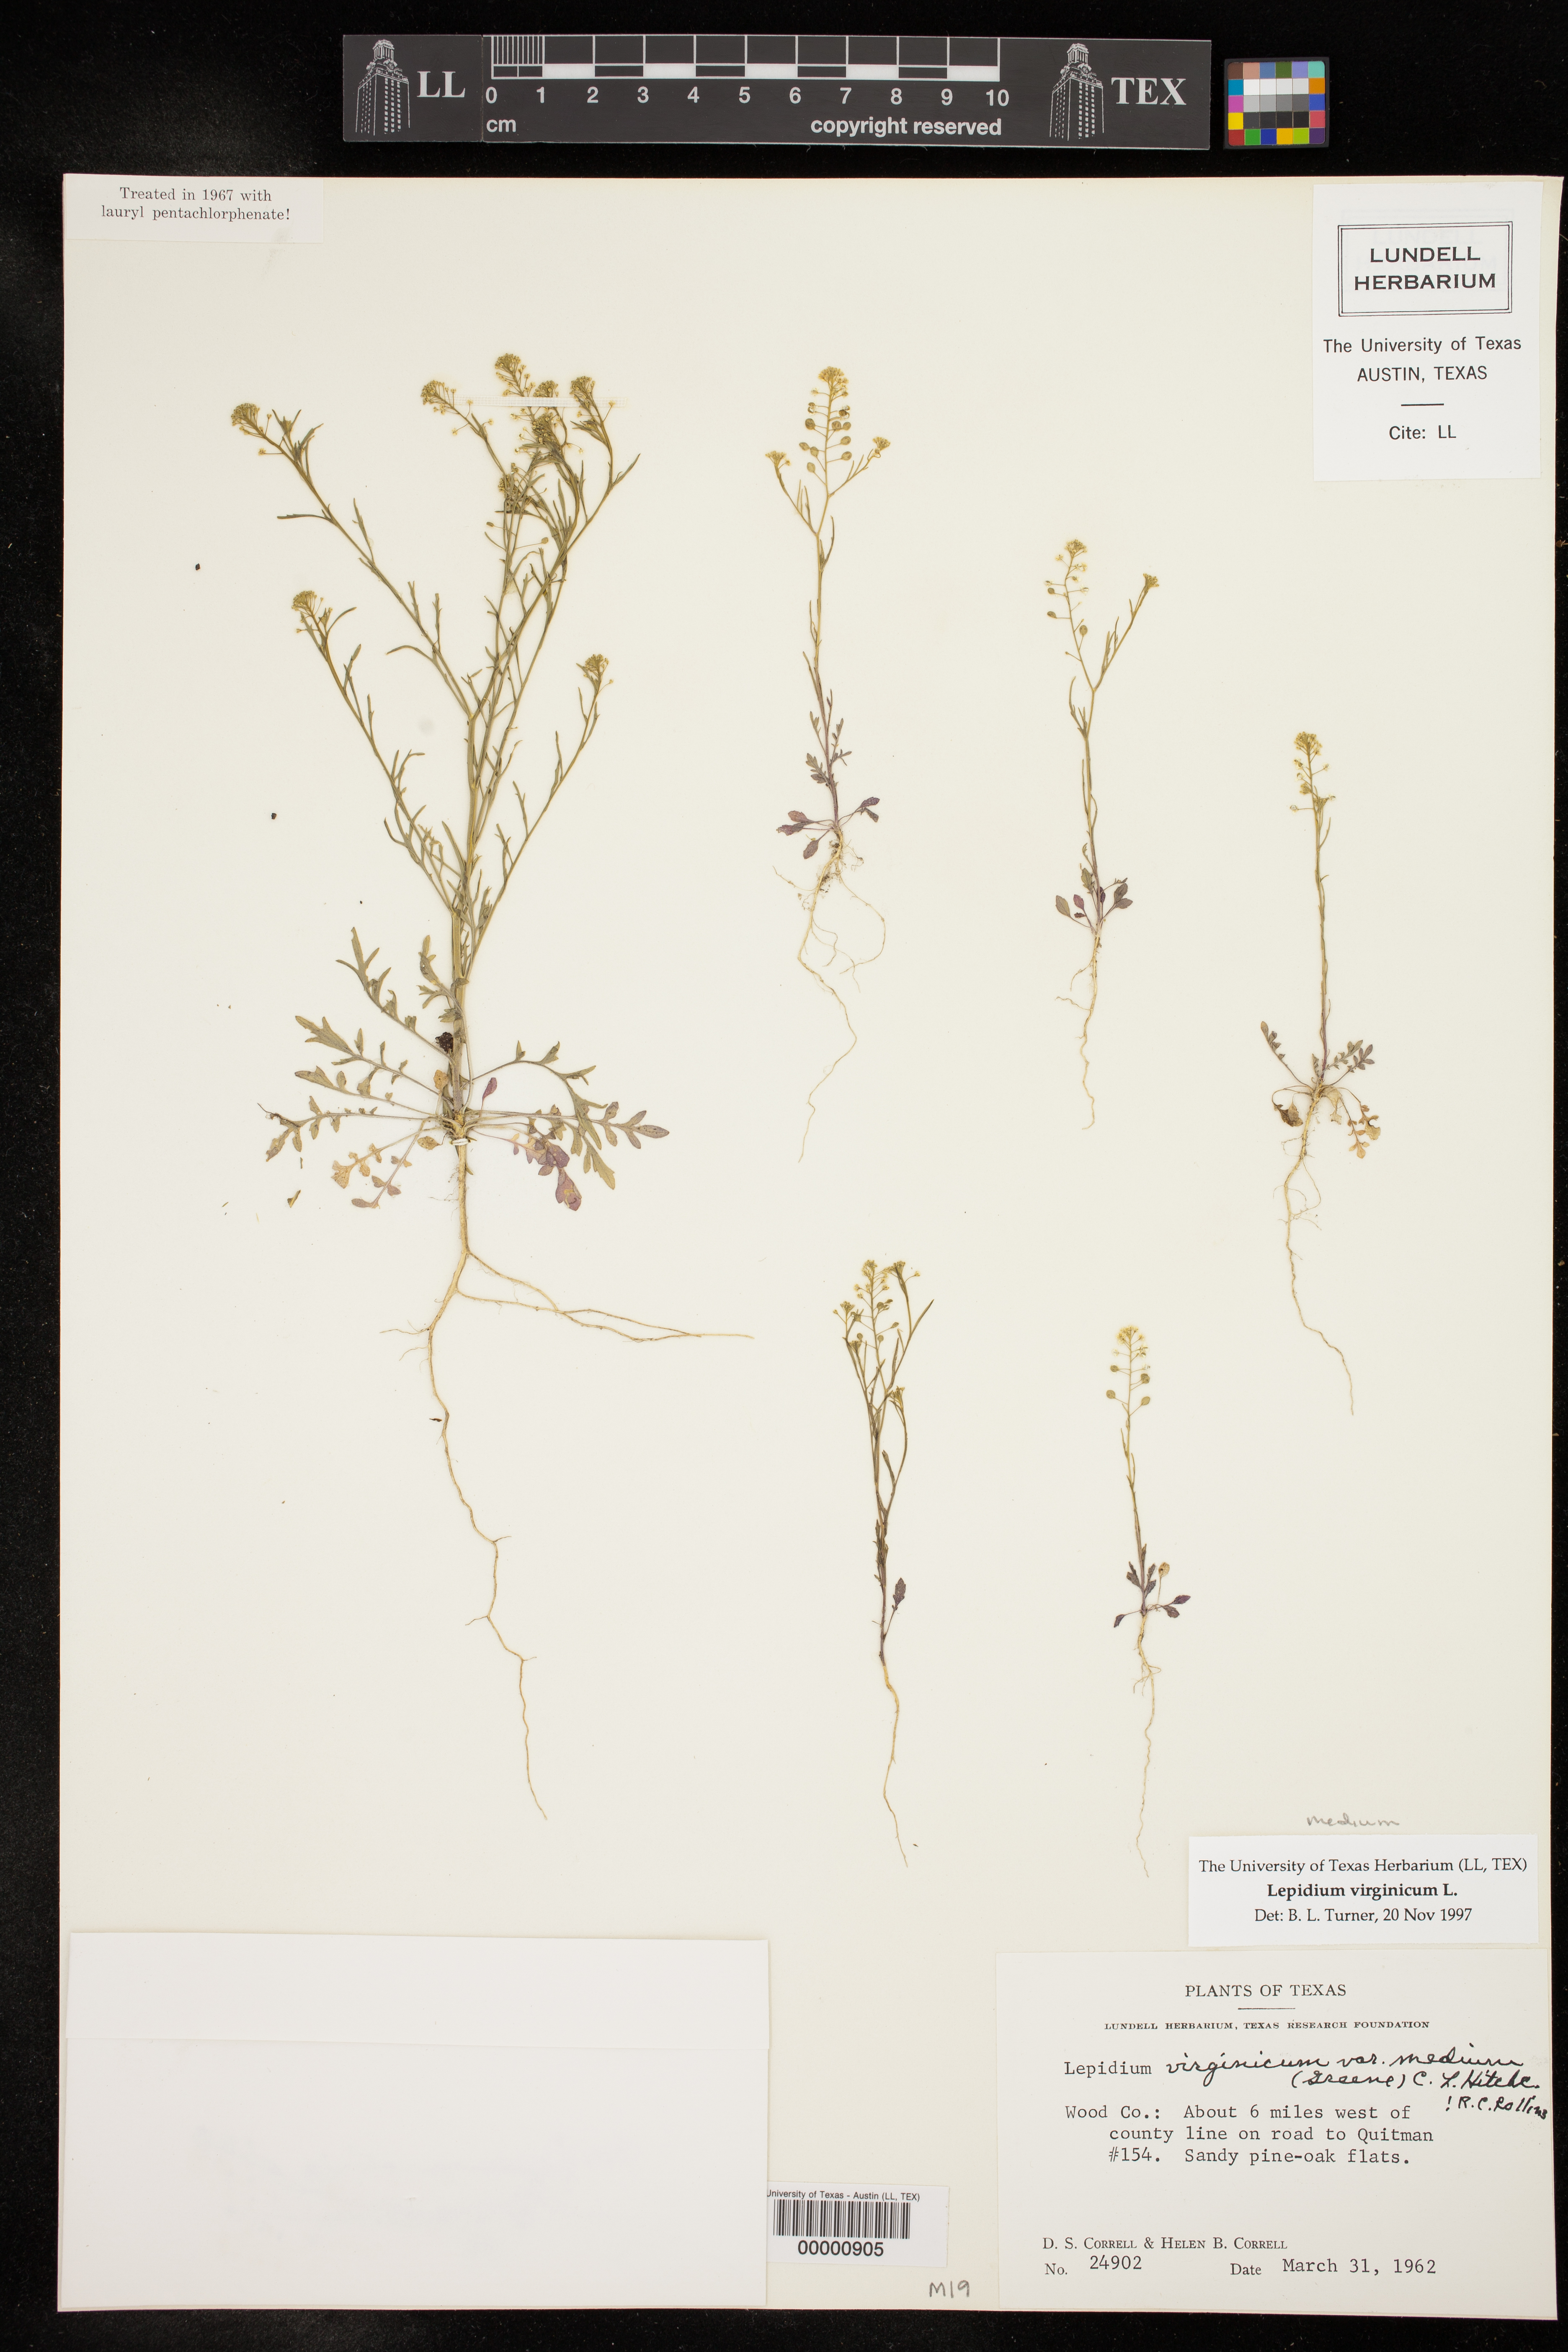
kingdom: Plantae
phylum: Tracheophyta
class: Magnoliopsida
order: Brassicales
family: Brassicaceae
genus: Lepidium
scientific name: Lepidium virginicum
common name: Least pepperwort
